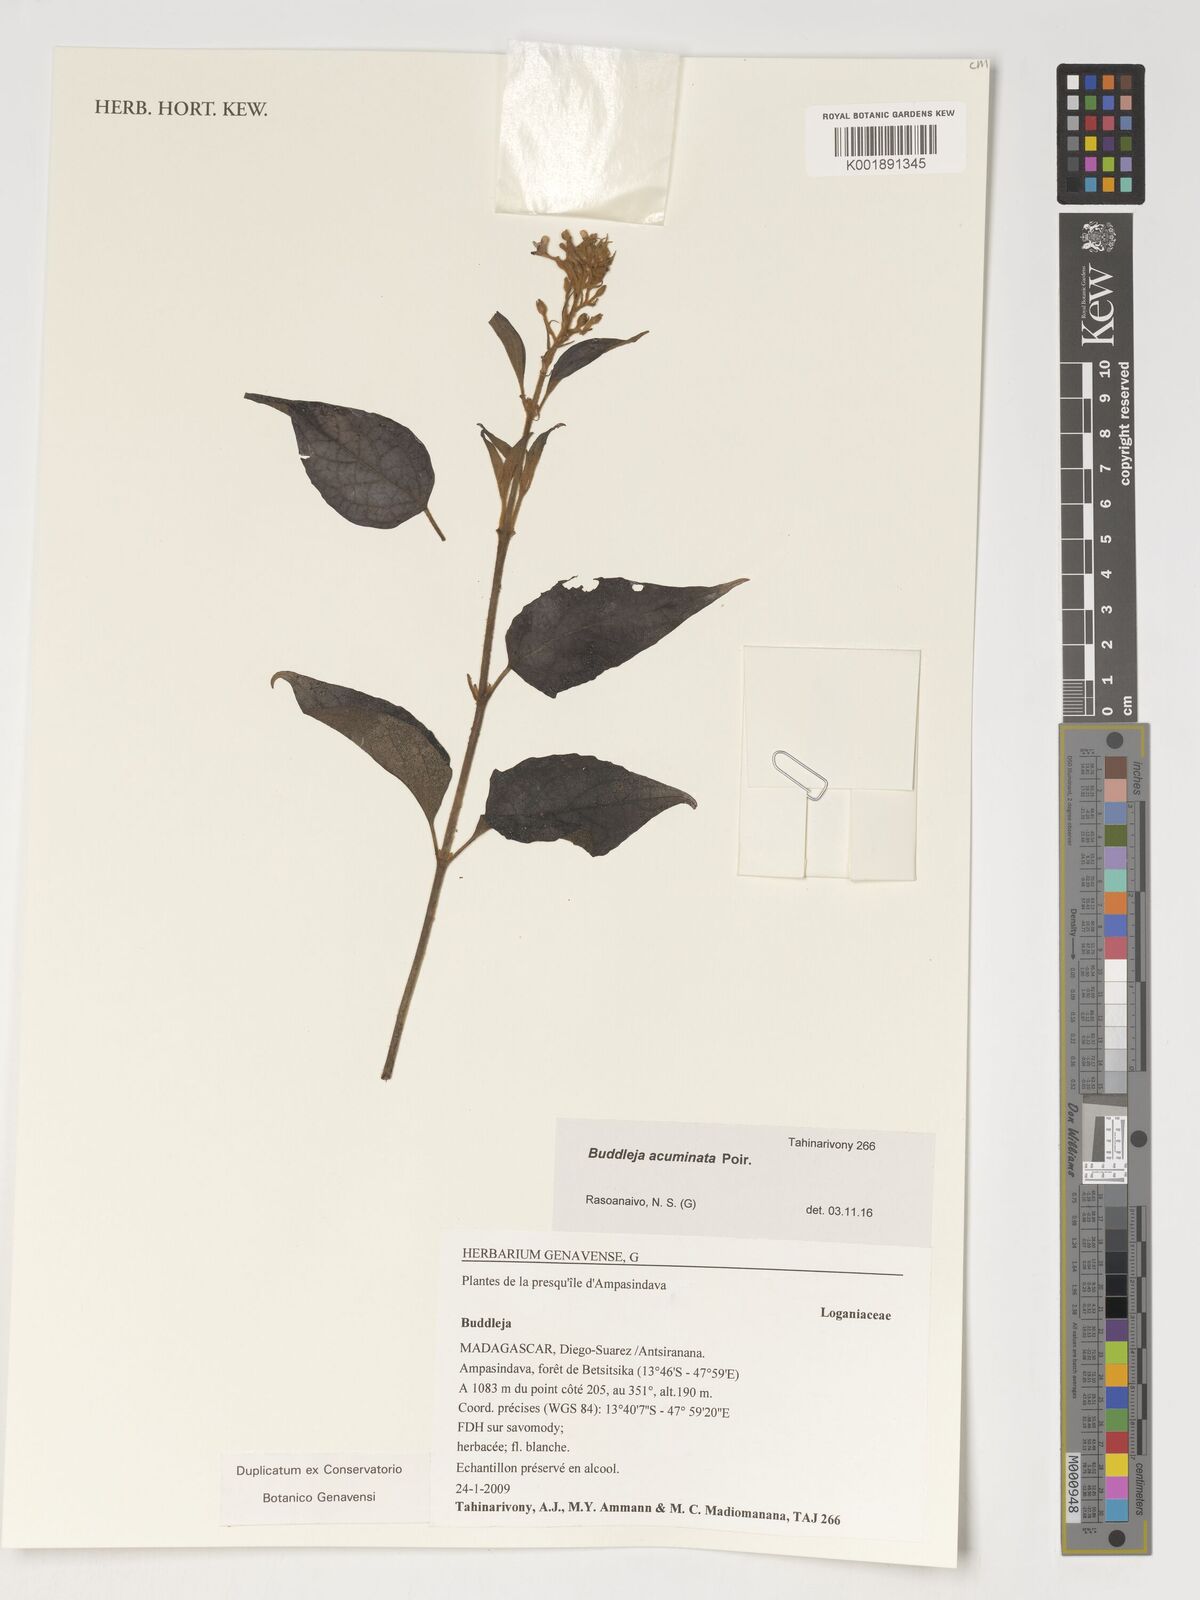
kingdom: Plantae
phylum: Tracheophyta
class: Magnoliopsida
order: Lamiales
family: Scrophulariaceae
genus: Buddleja
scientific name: Buddleja acuminata
